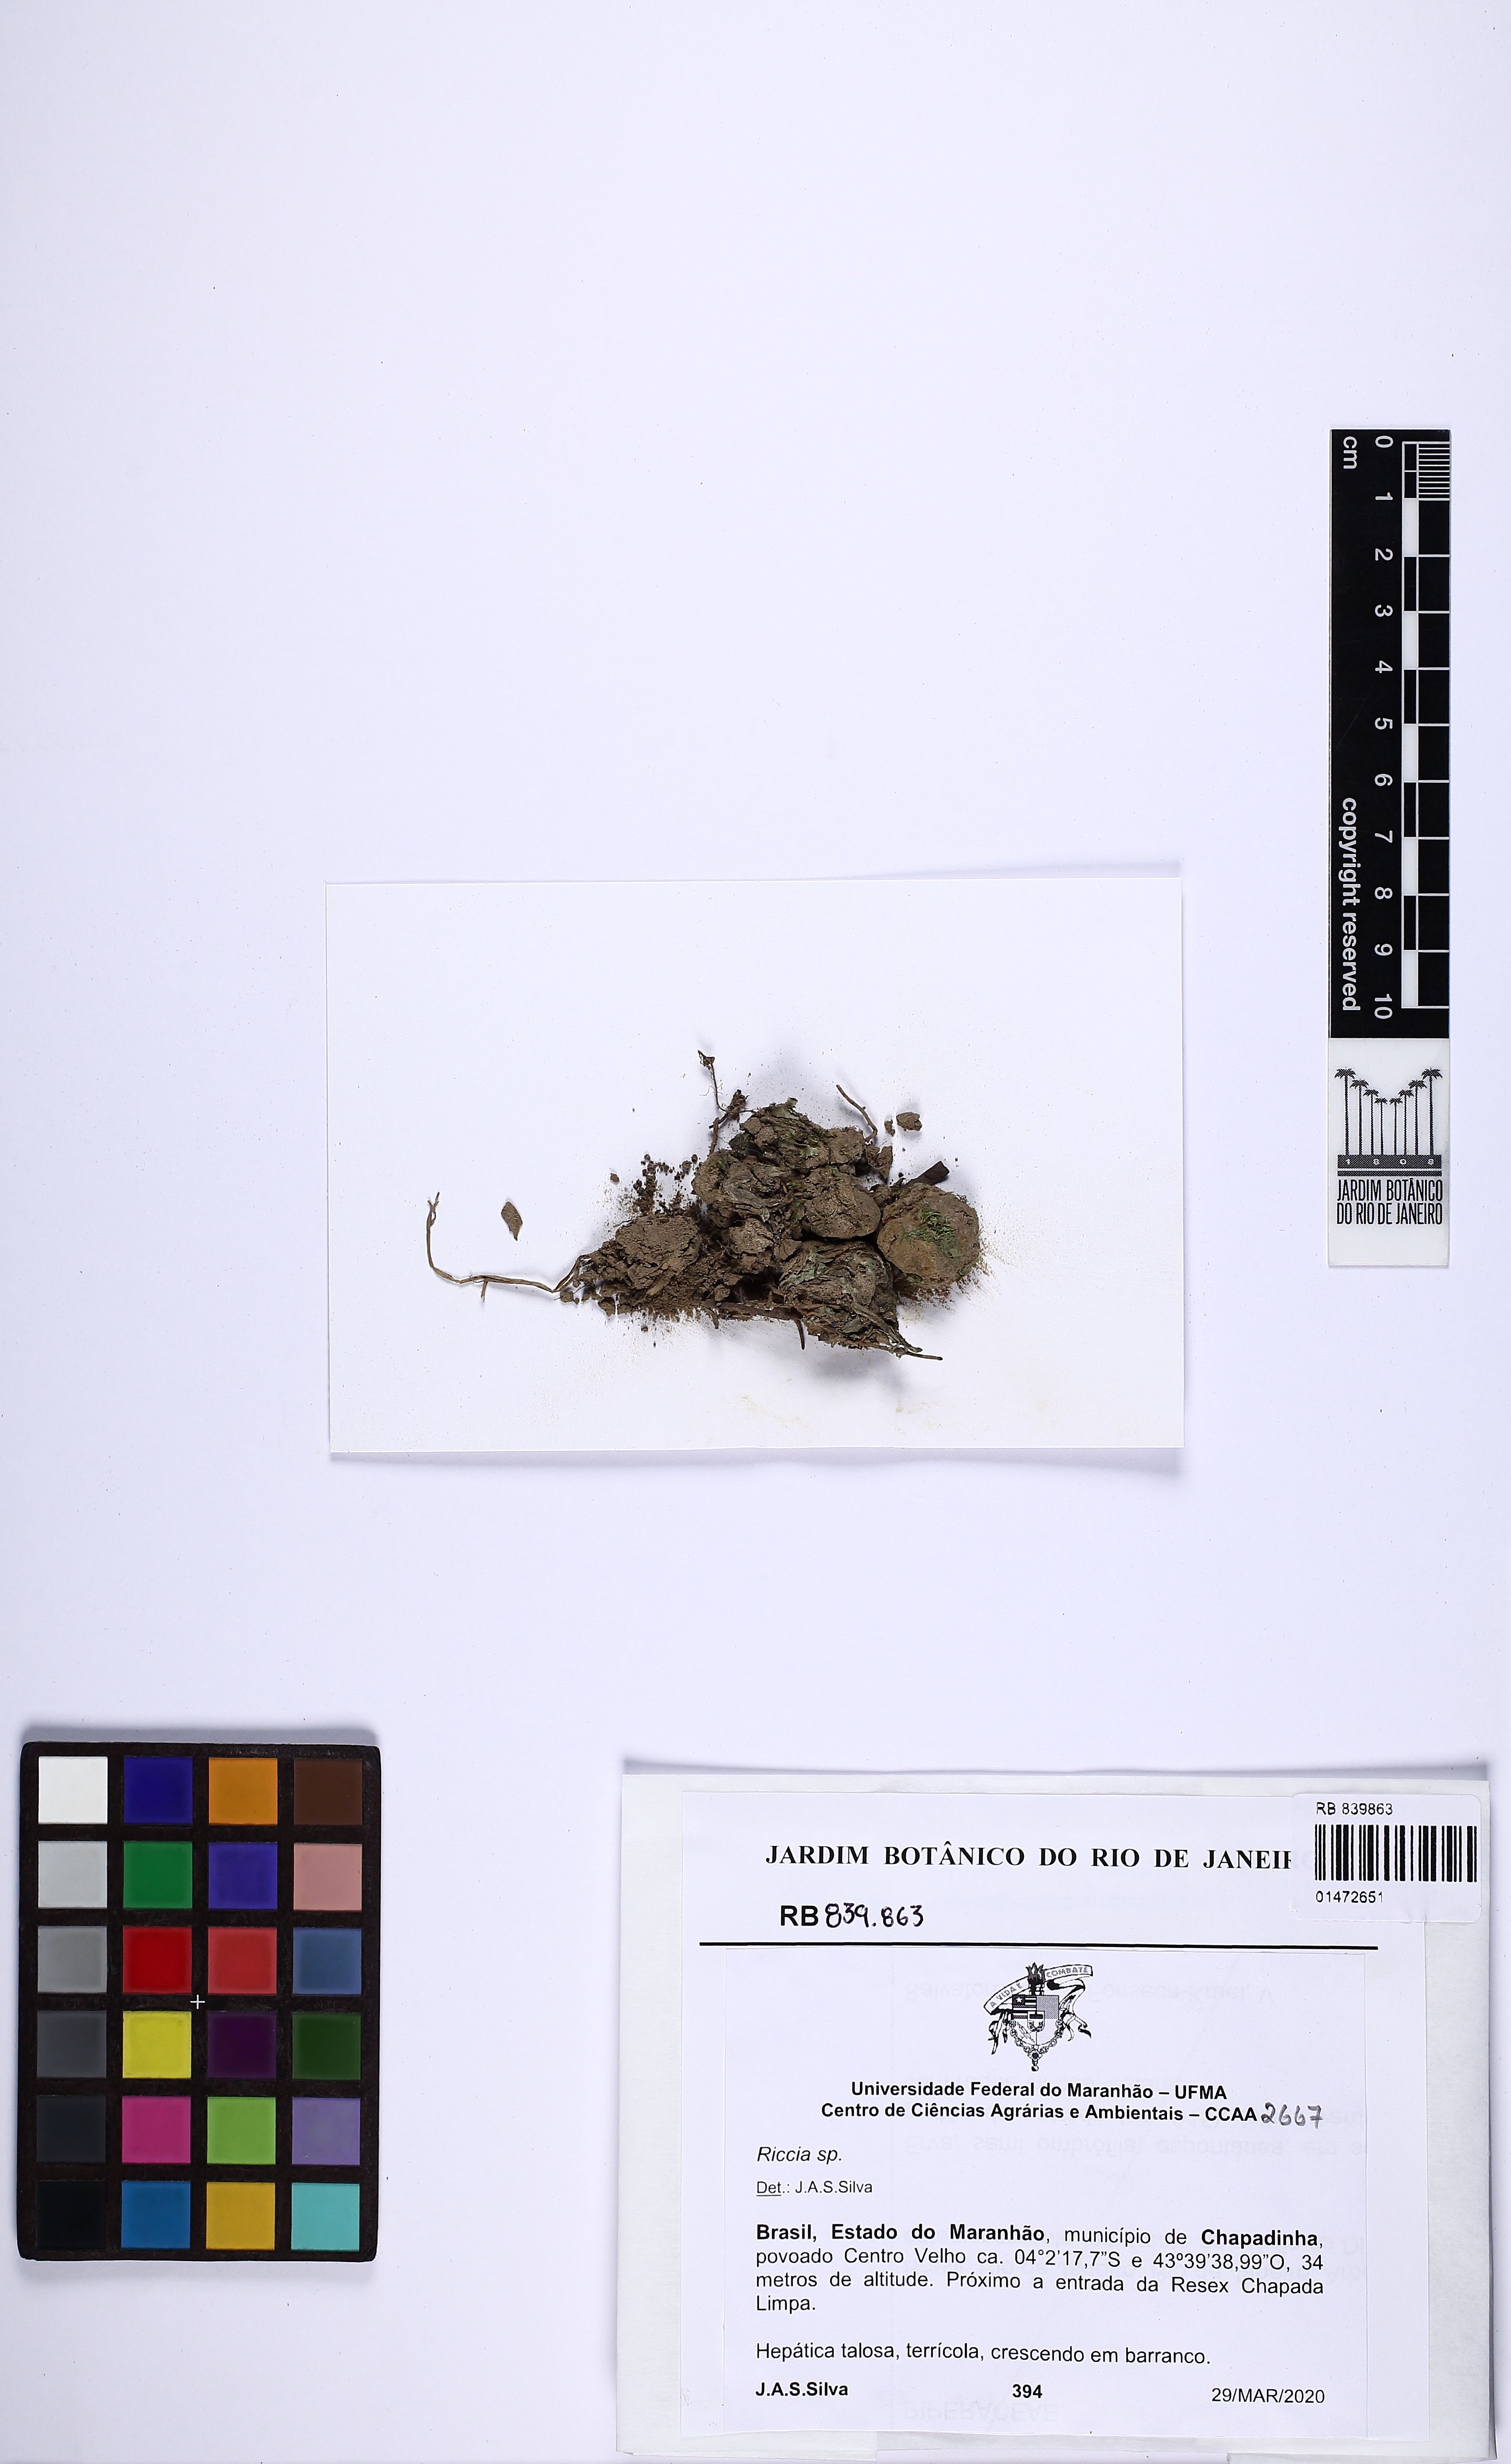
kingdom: Plantae
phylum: Marchantiophyta
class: Marchantiopsida
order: Marchantiales
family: Ricciaceae
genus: Riccia
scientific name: Riccia
